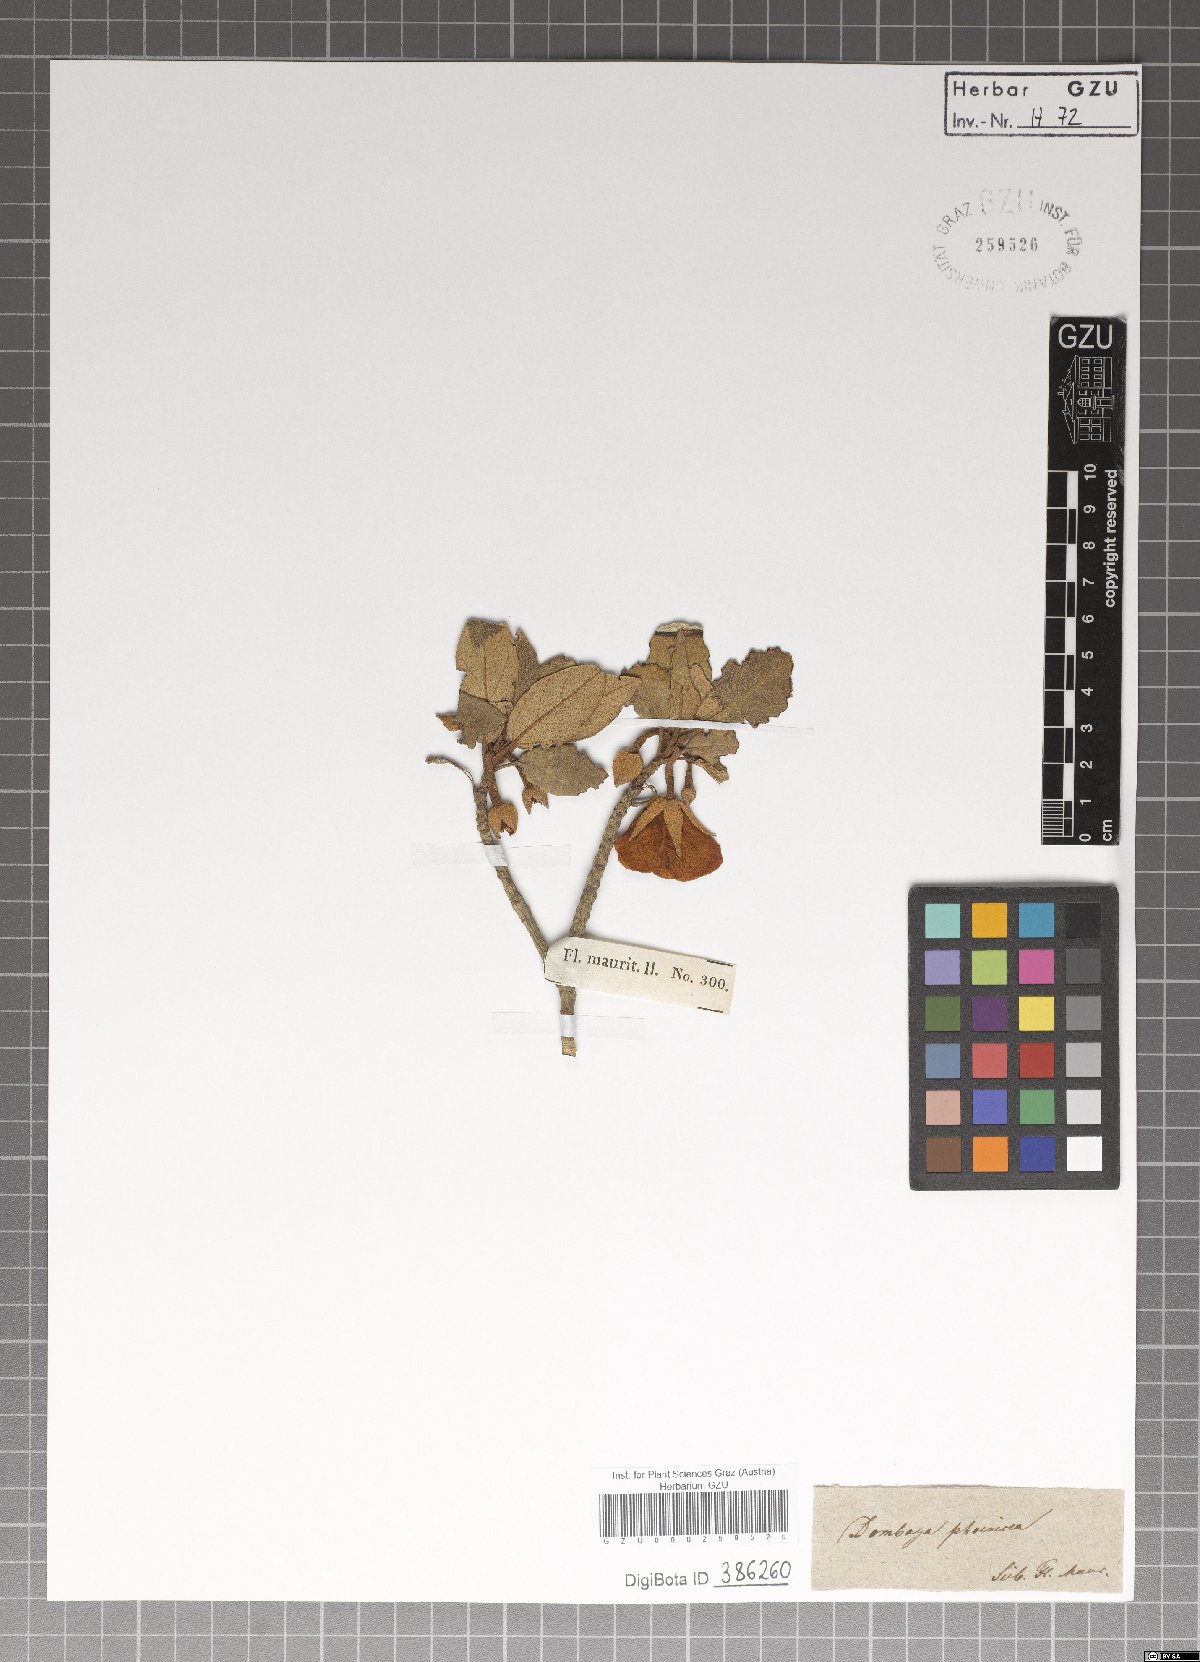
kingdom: Plantae
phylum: Tracheophyta
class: Magnoliopsida
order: Malvales
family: Malvaceae
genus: Pentapetes
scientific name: Pentapetes phoenicea
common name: Copper-cups
